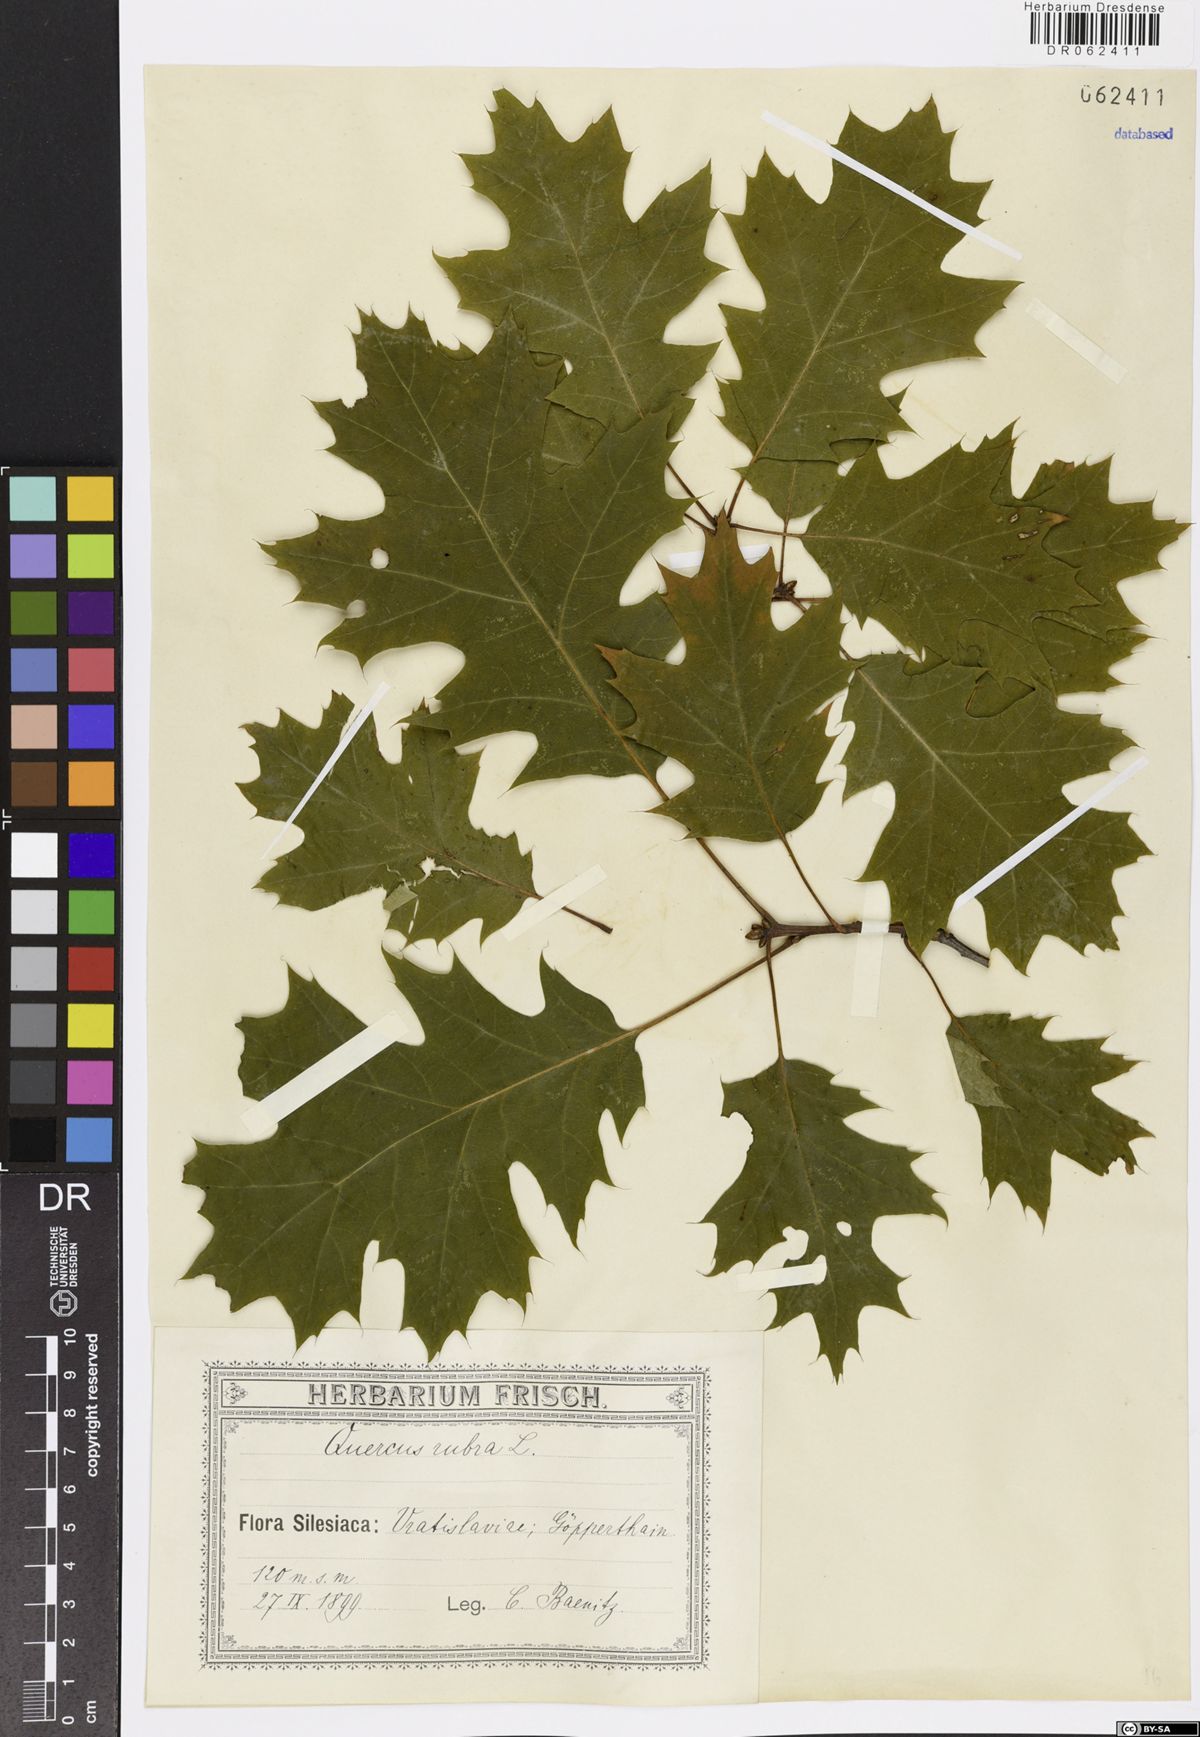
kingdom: Plantae
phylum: Tracheophyta
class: Magnoliopsida
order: Fagales
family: Fagaceae
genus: Quercus
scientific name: Quercus rubra
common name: Red oak
